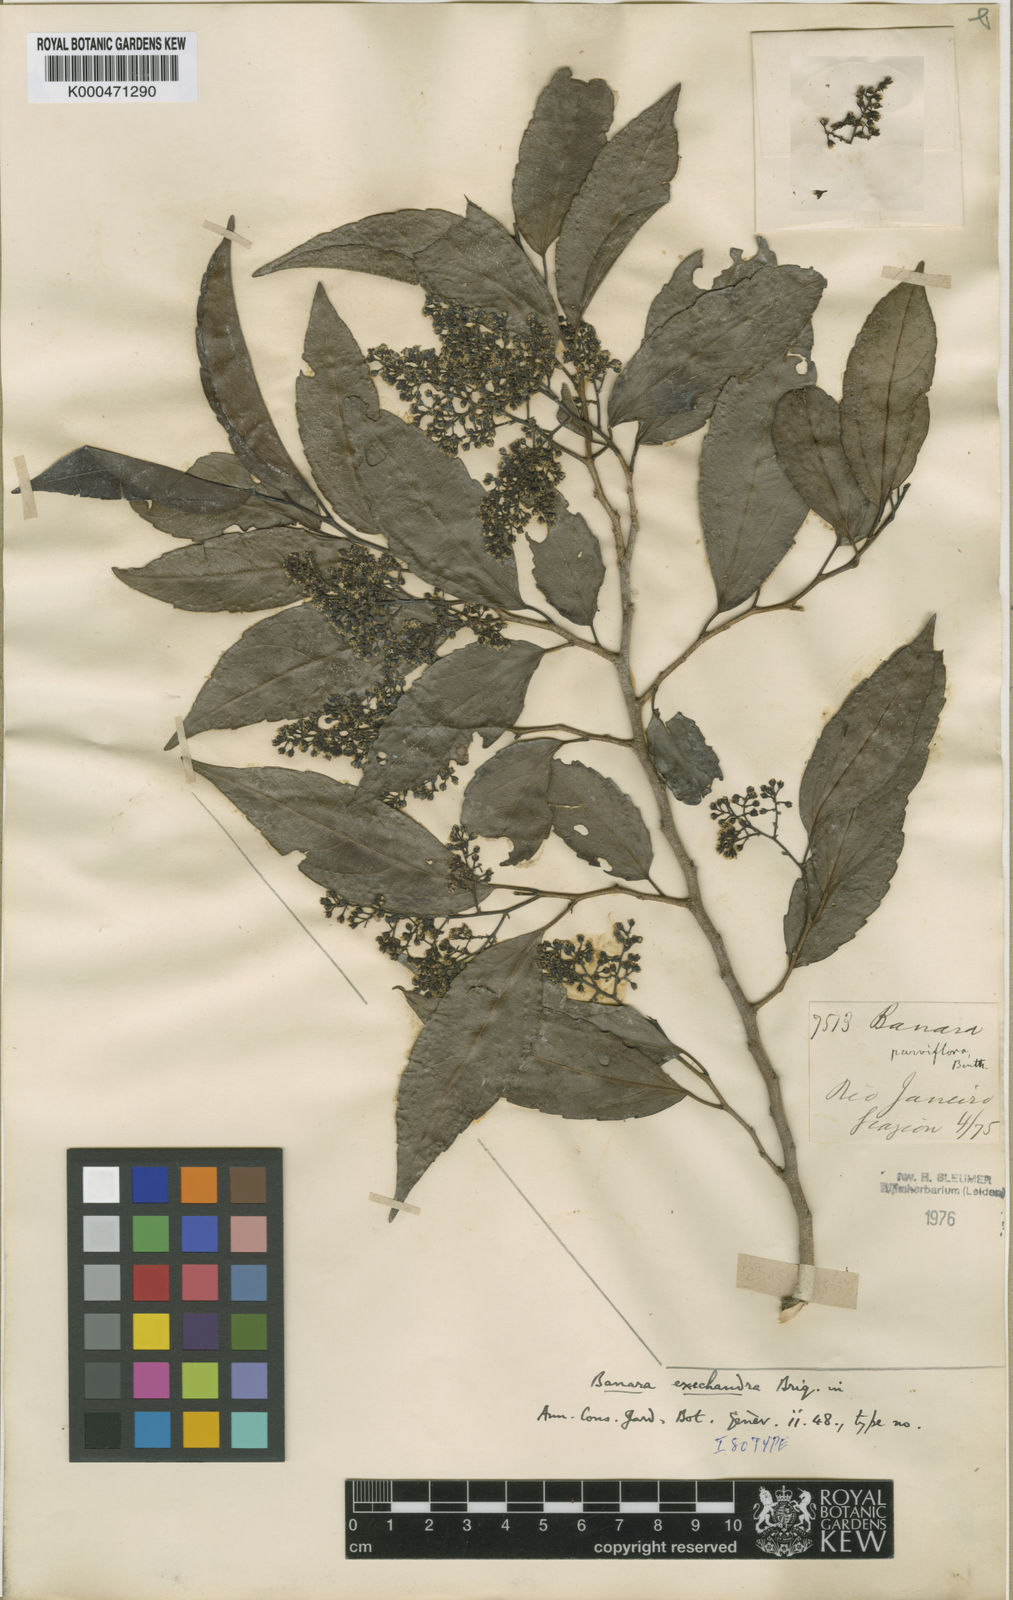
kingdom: Plantae
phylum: Tracheophyta
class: Magnoliopsida
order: Malpighiales
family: Salicaceae
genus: Banara
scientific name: Banara parviflora
